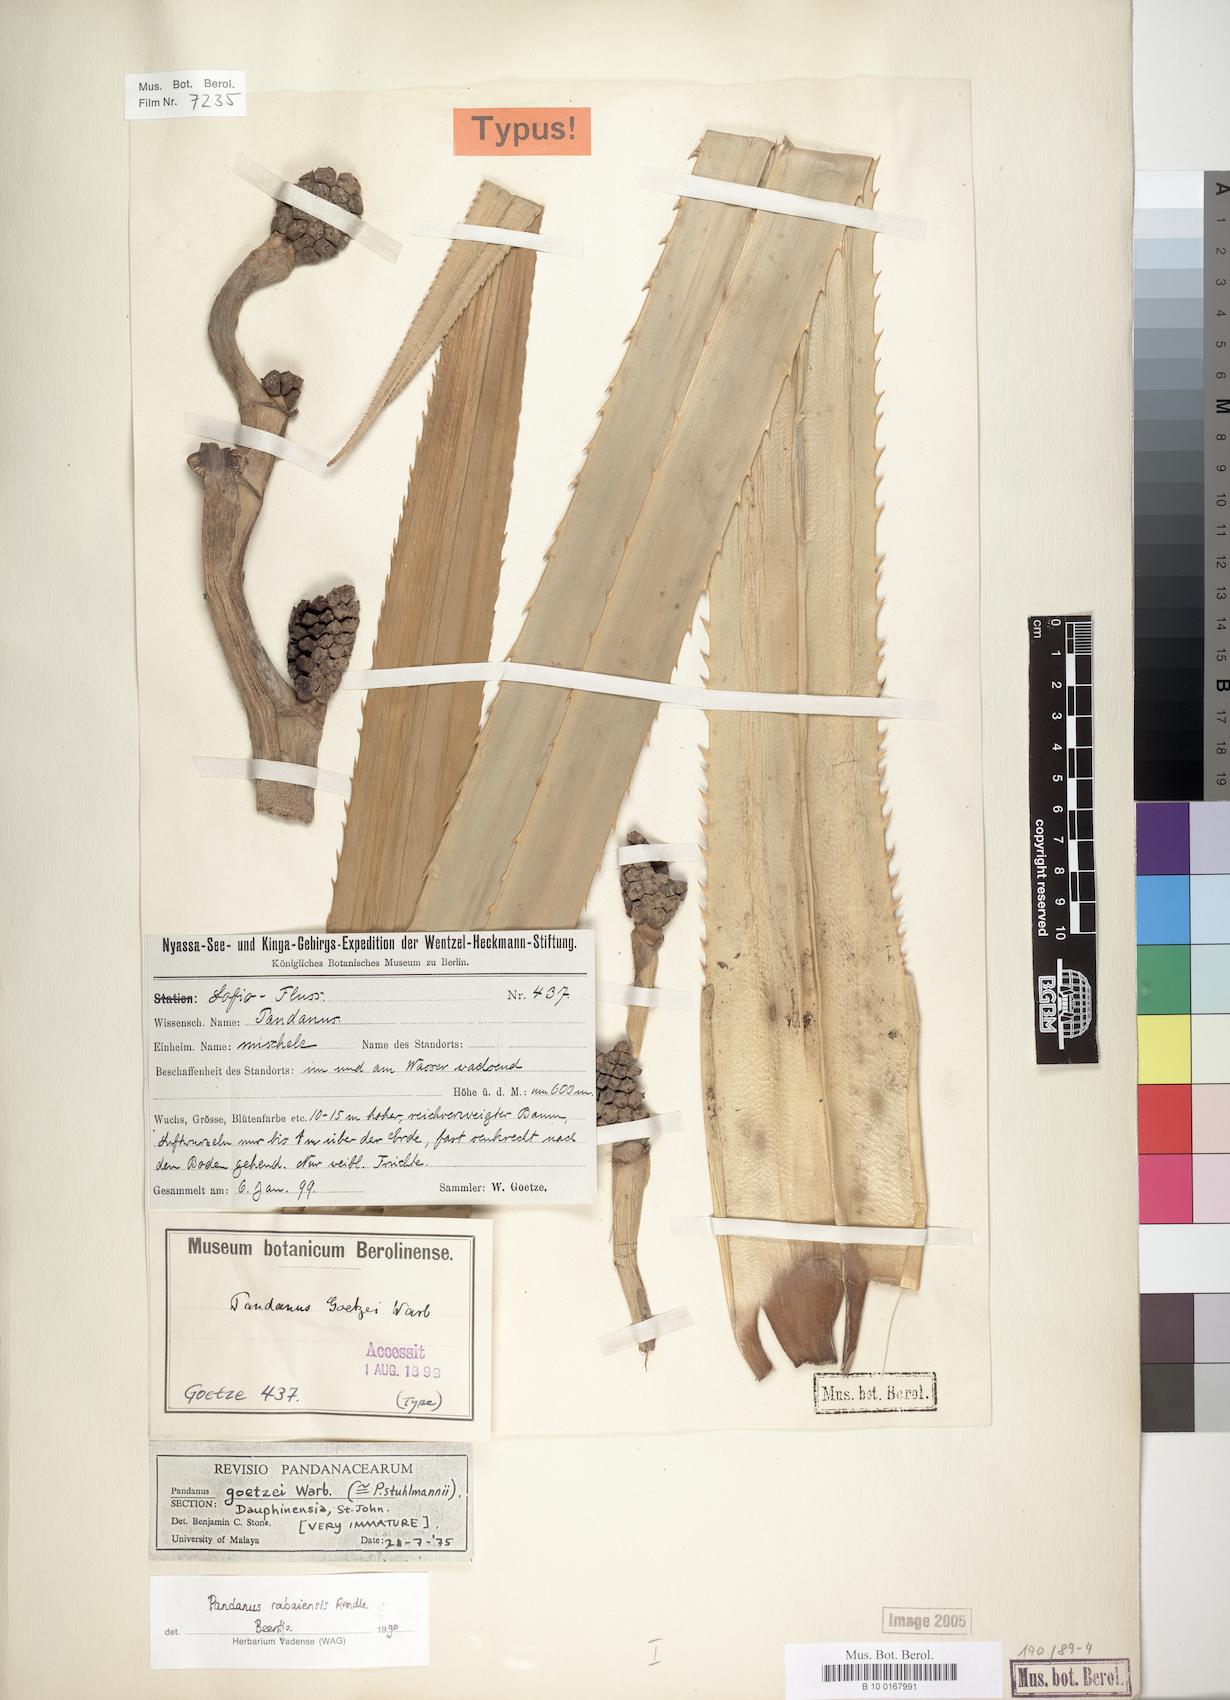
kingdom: Plantae
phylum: Tracheophyta
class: Liliopsida
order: Pandanales
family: Pandanaceae
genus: Pandanus
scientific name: Pandanus rabaiensis
